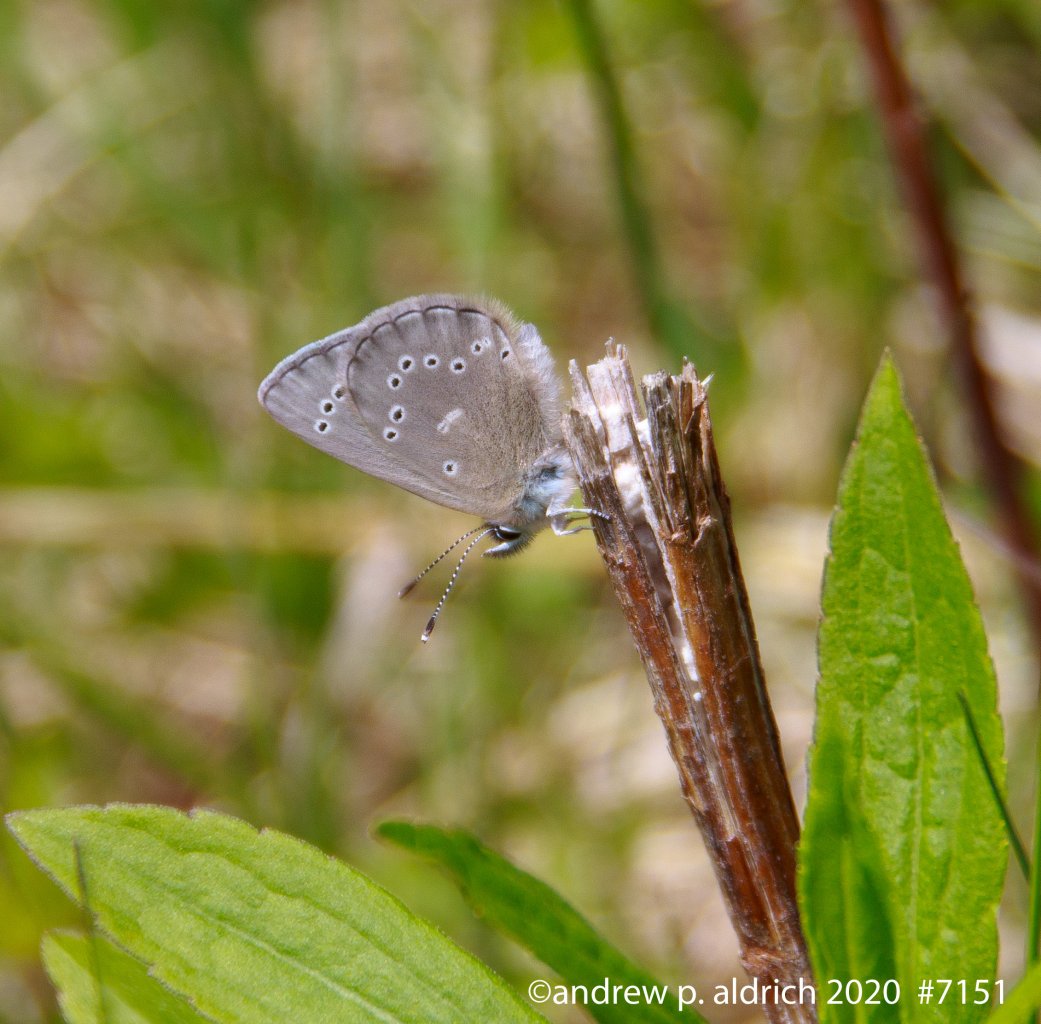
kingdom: Animalia
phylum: Arthropoda
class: Insecta
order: Lepidoptera
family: Lycaenidae
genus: Glaucopsyche
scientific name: Glaucopsyche lygdamus
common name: Silvery Blue
